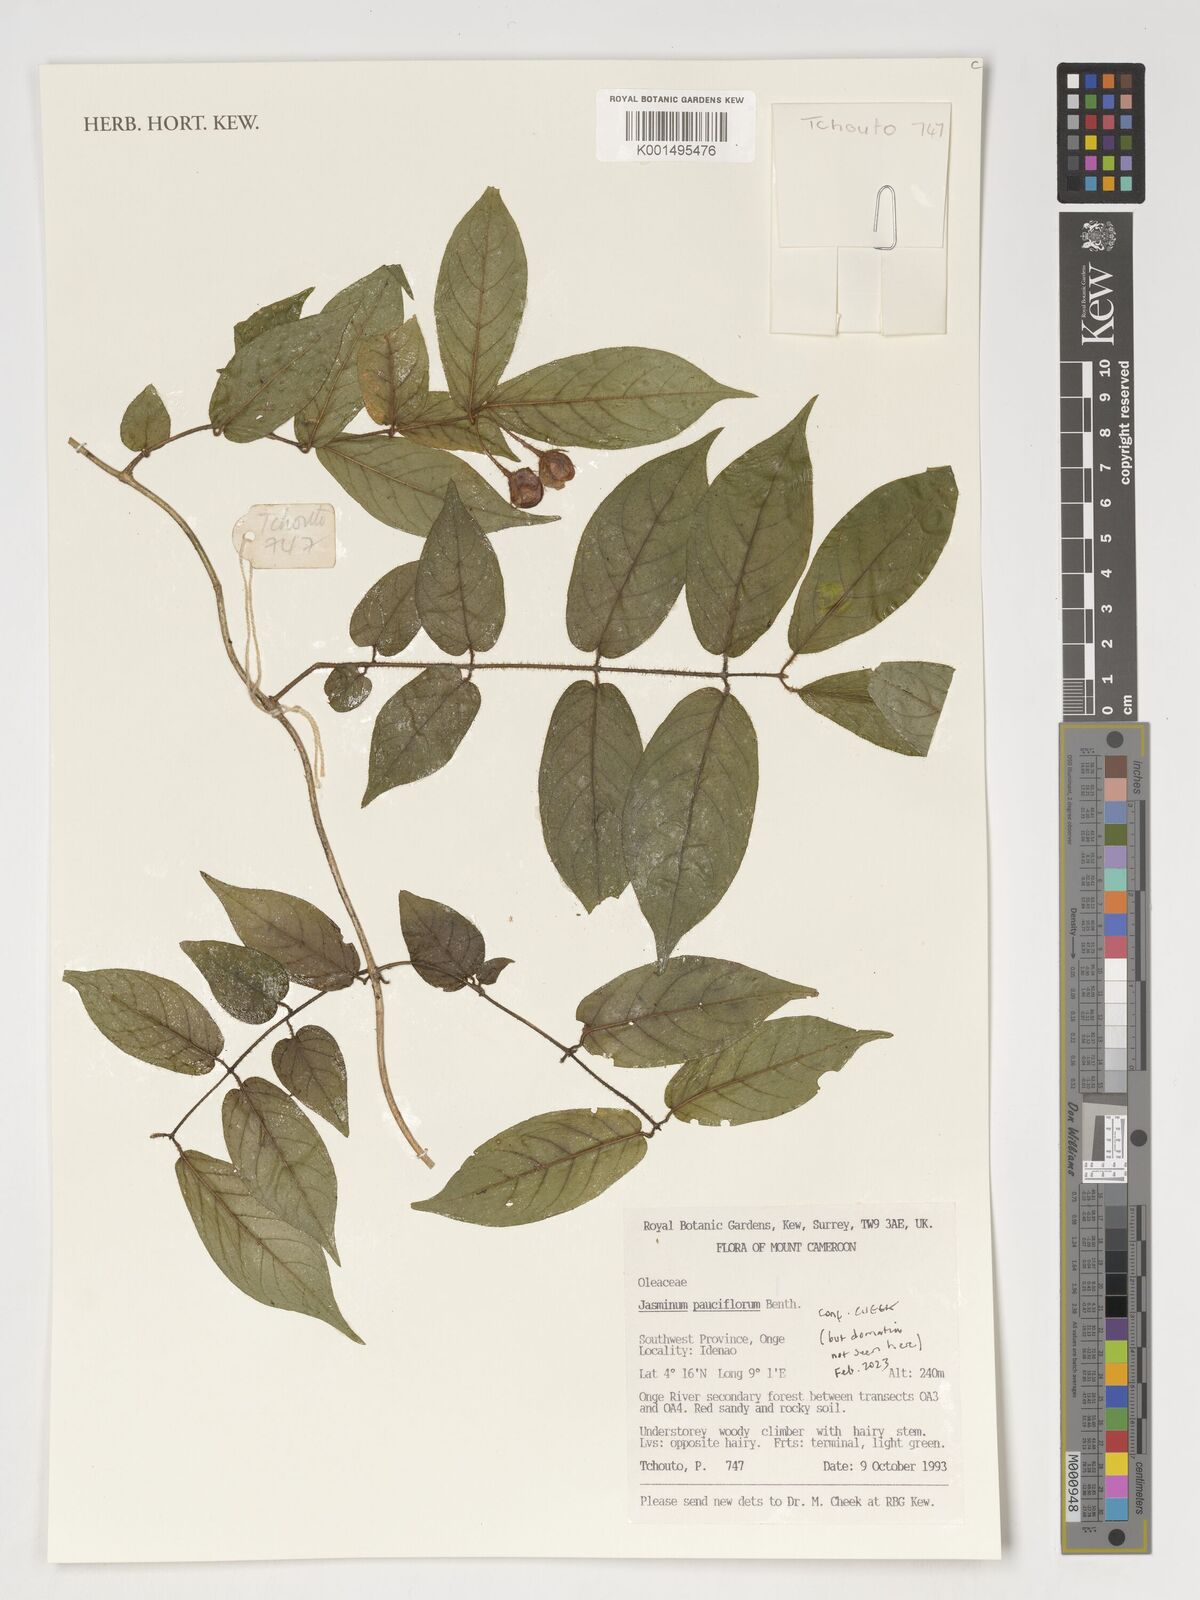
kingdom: Plantae
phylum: Tracheophyta
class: Magnoliopsida
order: Lamiales
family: Oleaceae
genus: Jasminum
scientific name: Jasminum pauciflorum
